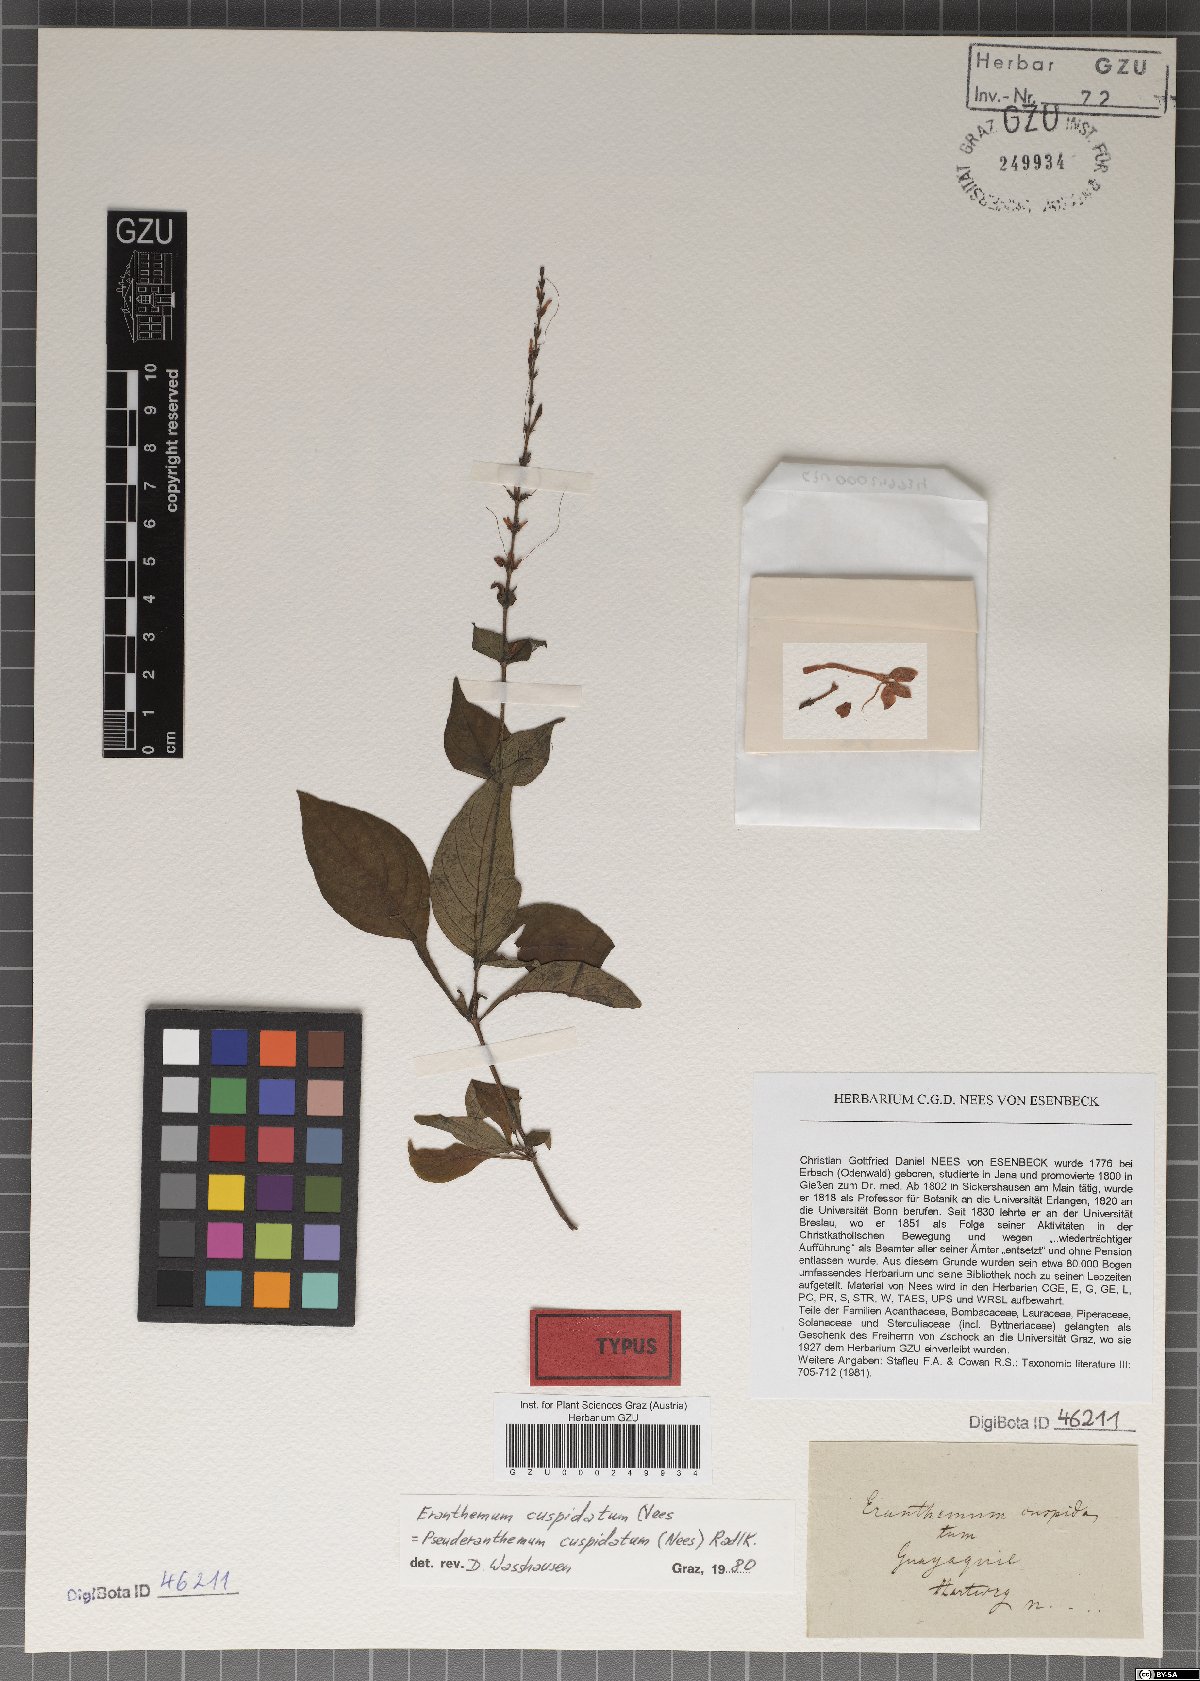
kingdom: Plantae
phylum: Tracheophyta
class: Magnoliopsida
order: Lamiales
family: Acanthaceae
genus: Pseuderanthemum
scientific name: Pseuderanthemum cuspidatum
